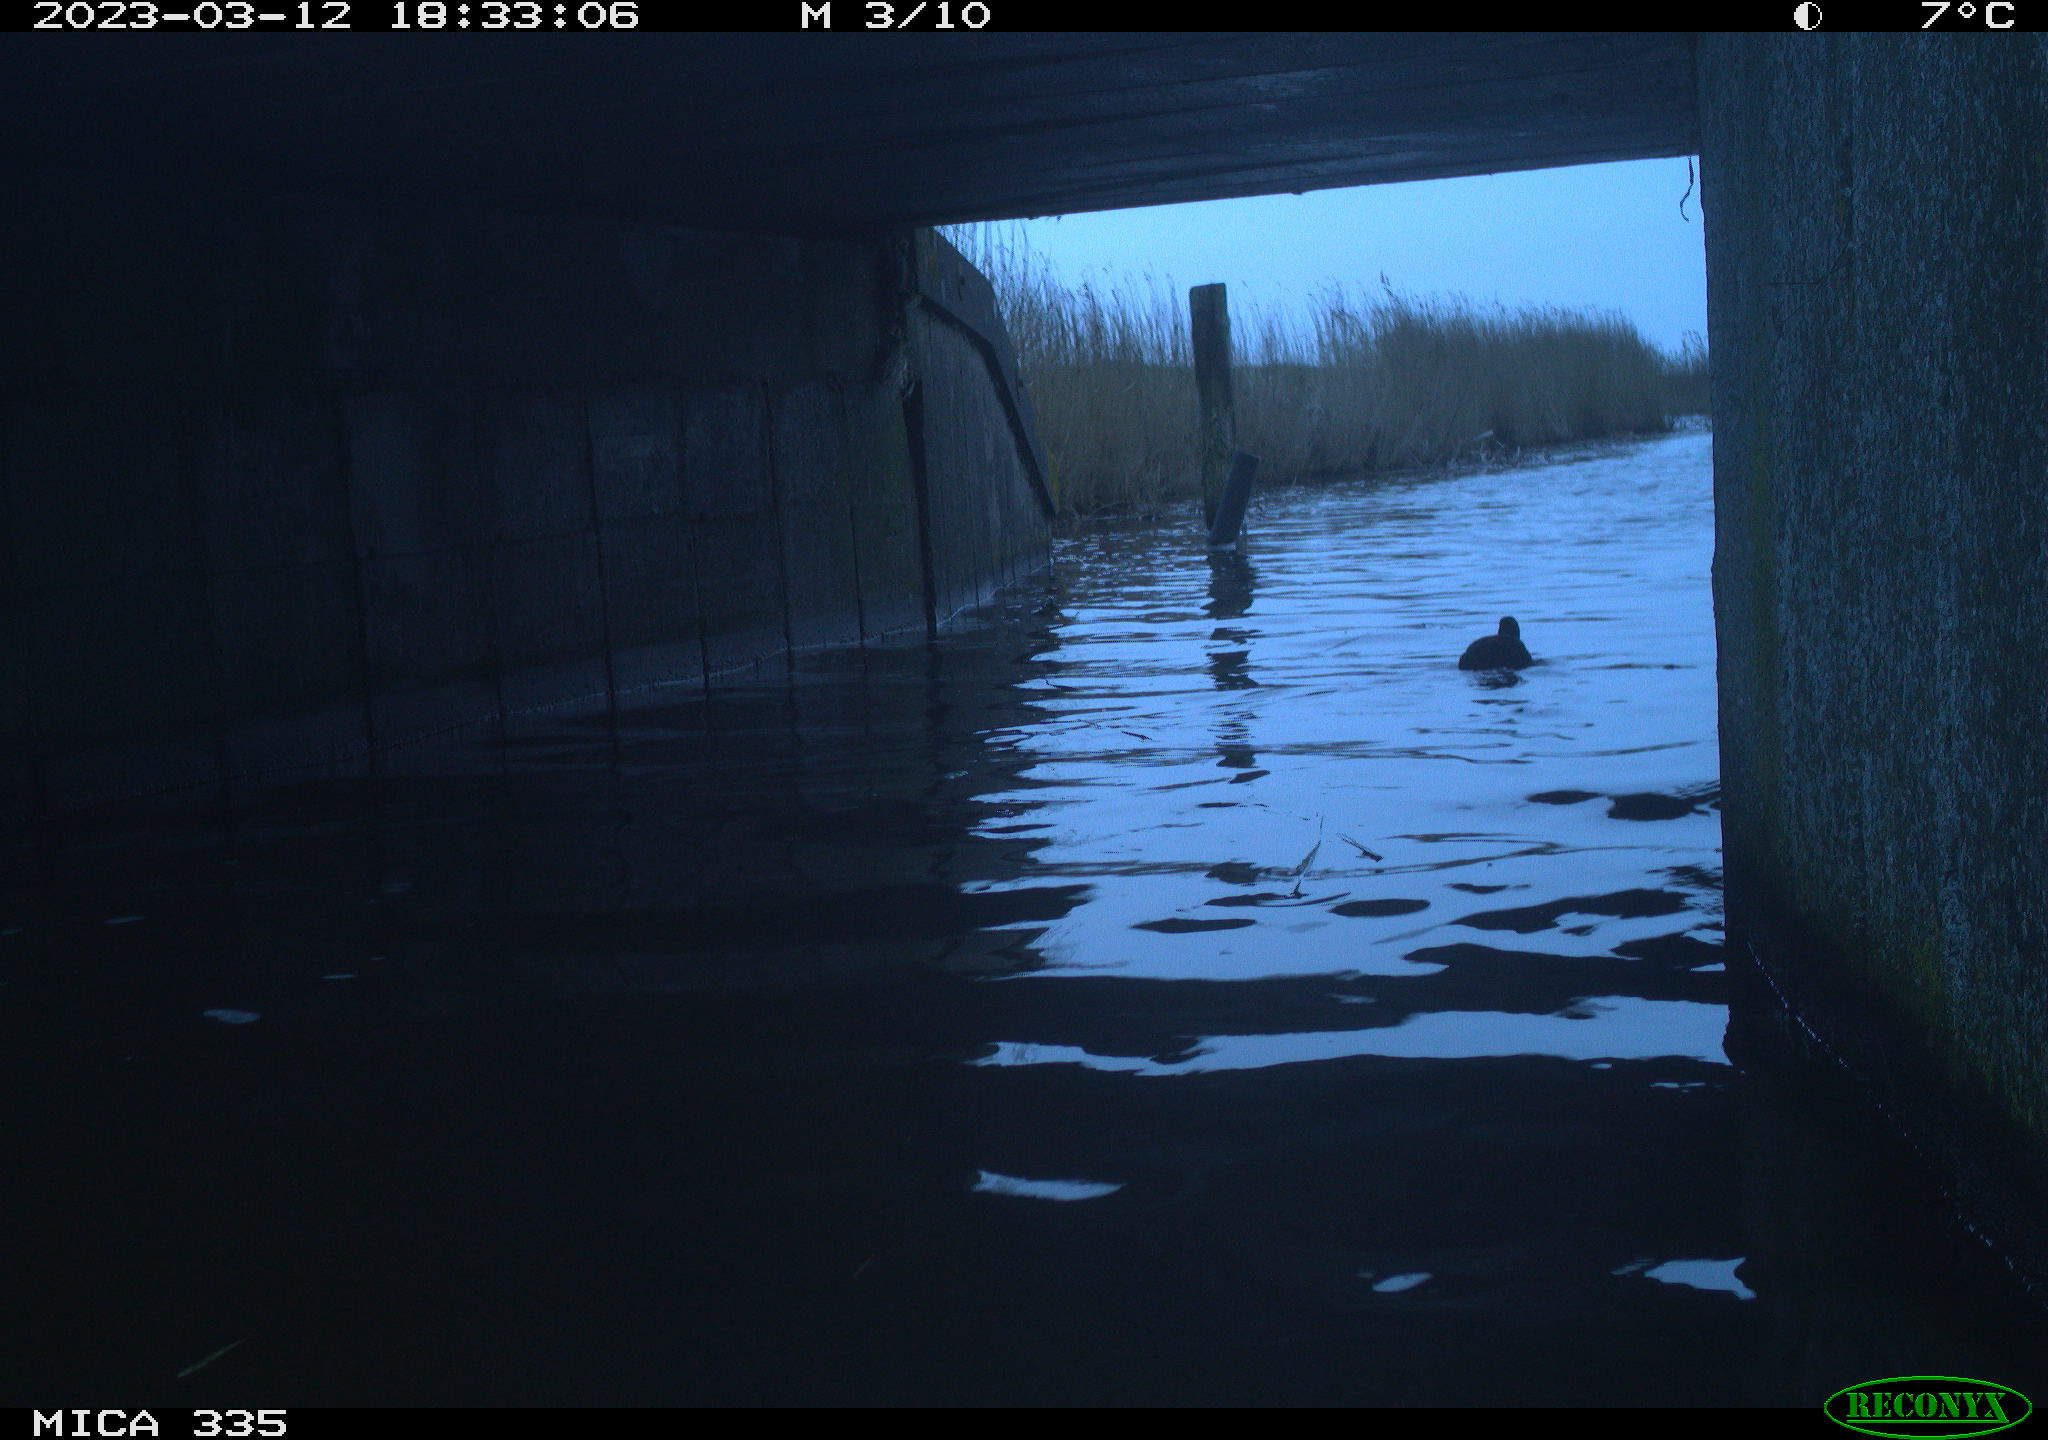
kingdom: Animalia
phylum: Chordata
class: Aves
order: Anseriformes
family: Anatidae
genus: Anas
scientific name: Anas
